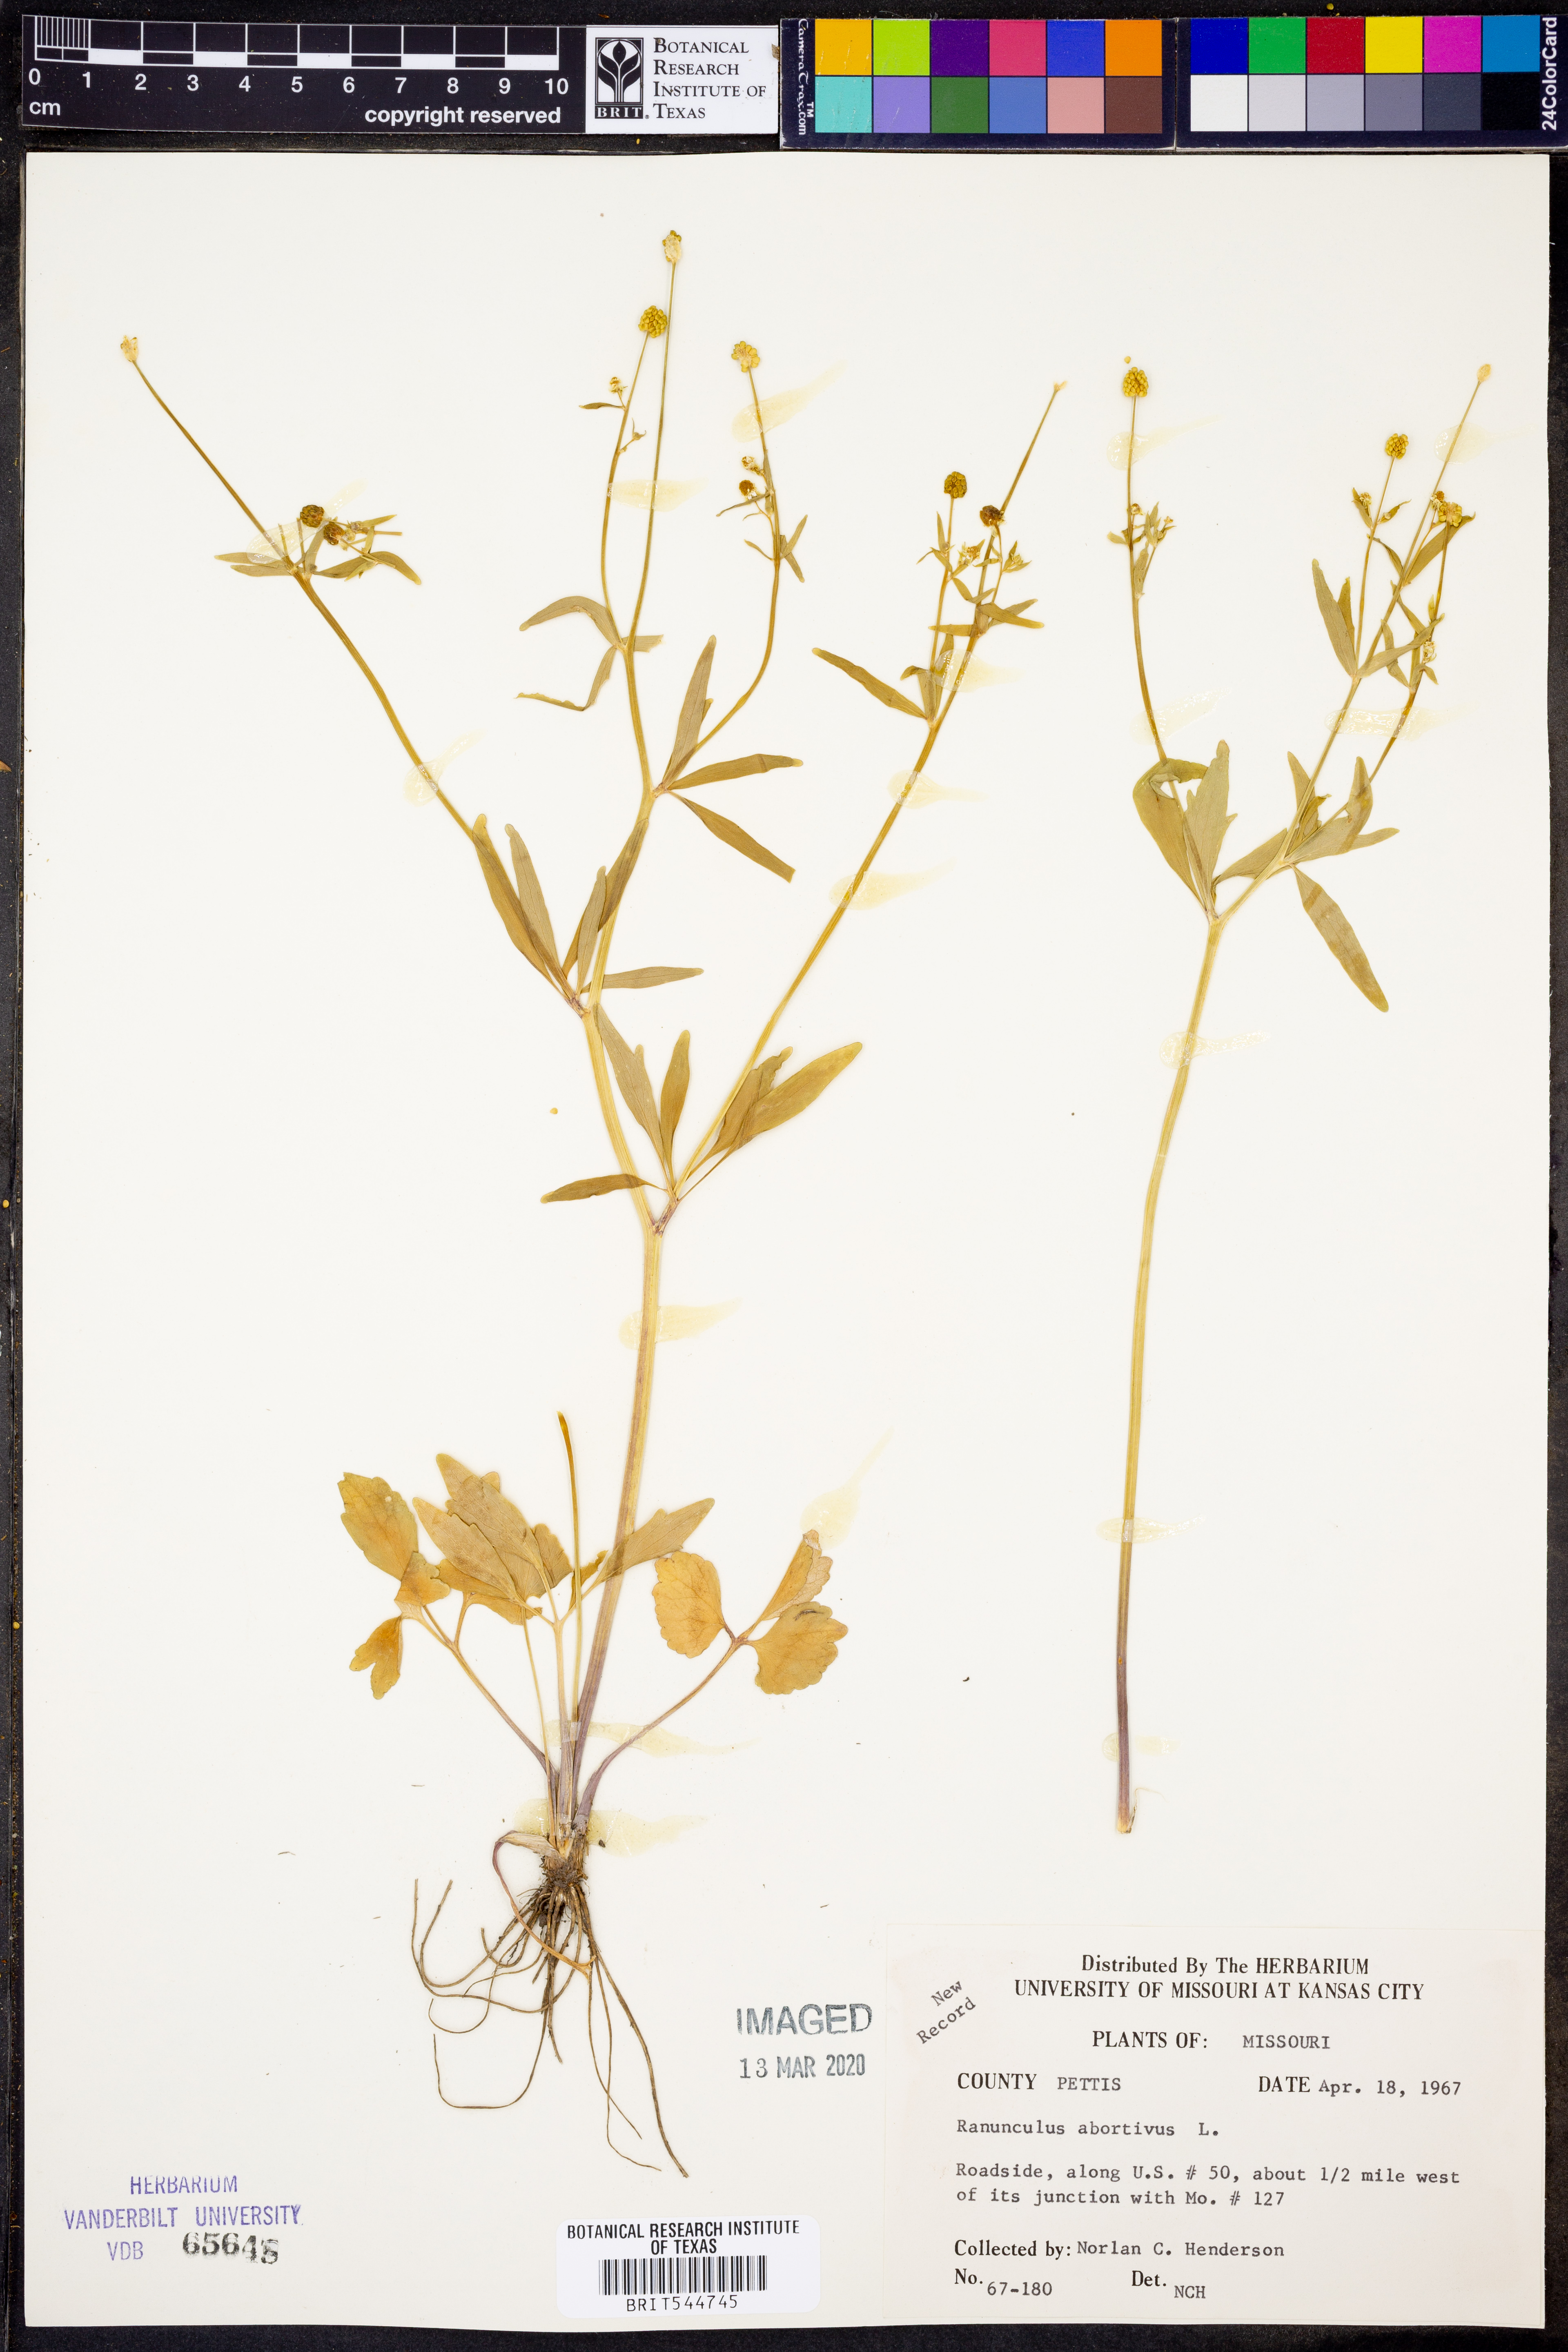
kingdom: Plantae
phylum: Tracheophyta
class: Magnoliopsida
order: Ranunculales
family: Ranunculaceae
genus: Ranunculus
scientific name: Ranunculus abortivus
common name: Early wood buttercup
